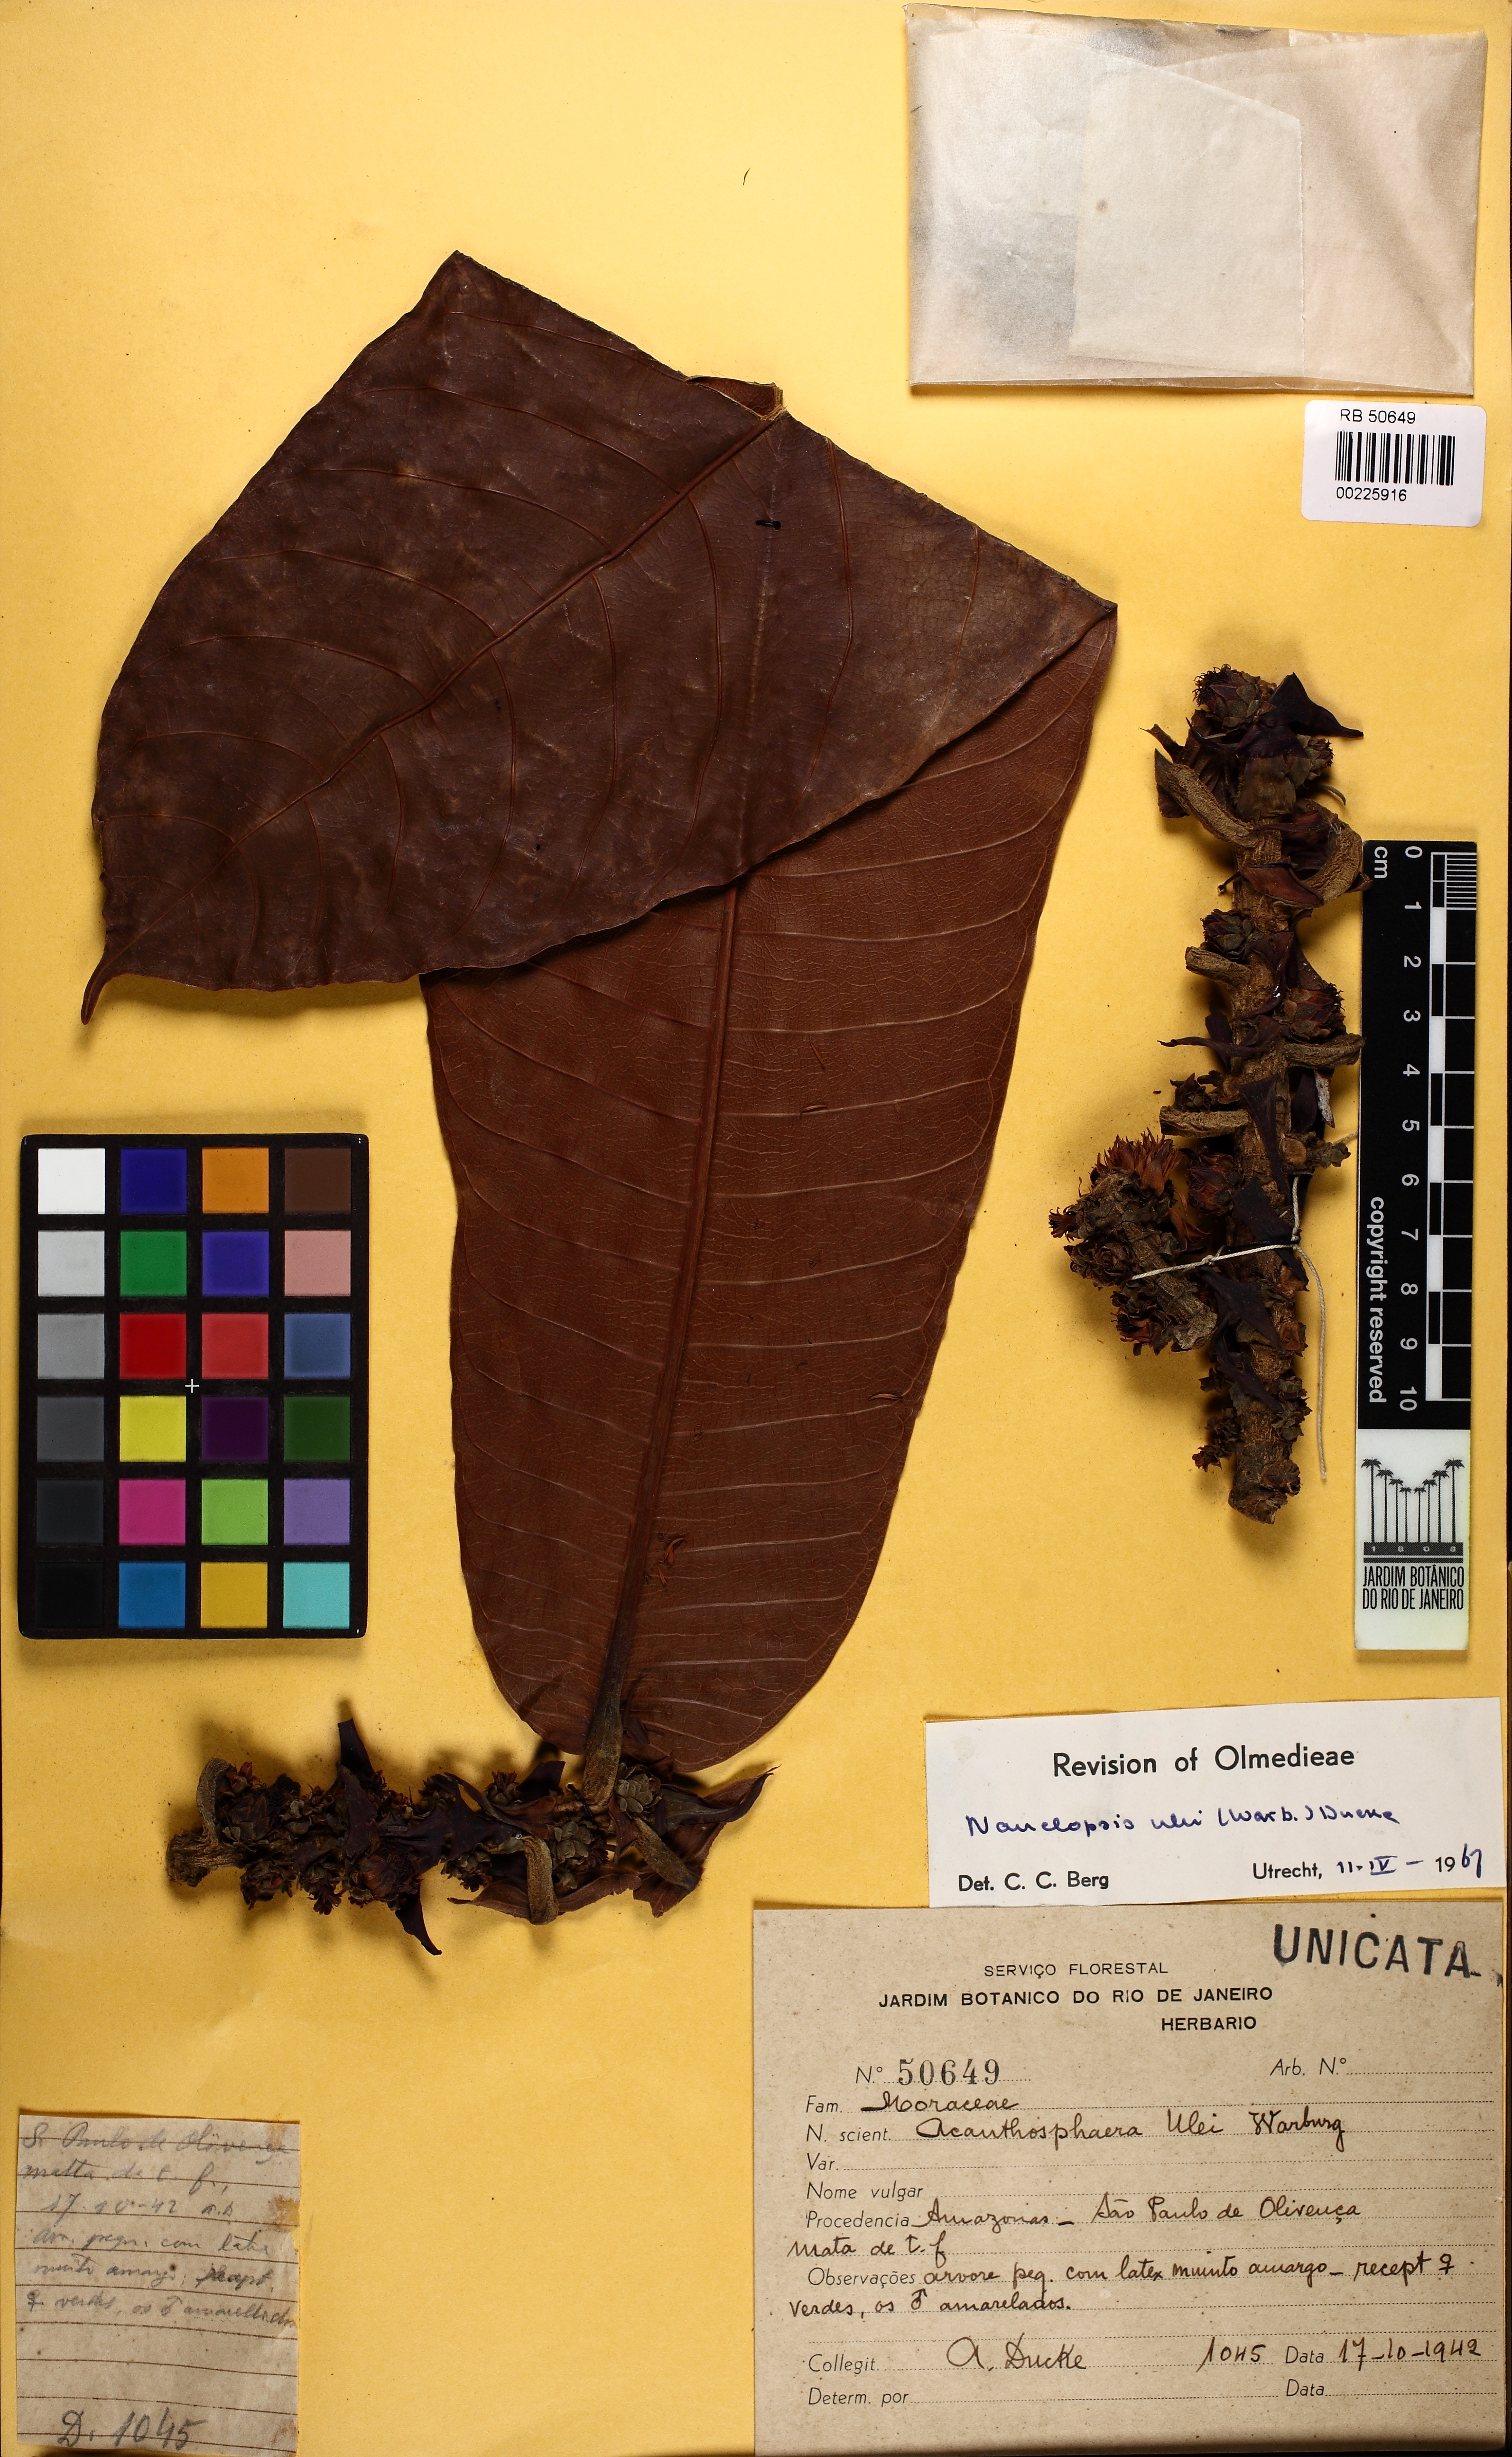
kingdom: Plantae
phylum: Tracheophyta
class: Magnoliopsida
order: Rosales
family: Moraceae
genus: Naucleopsis
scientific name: Naucleopsis ulei
